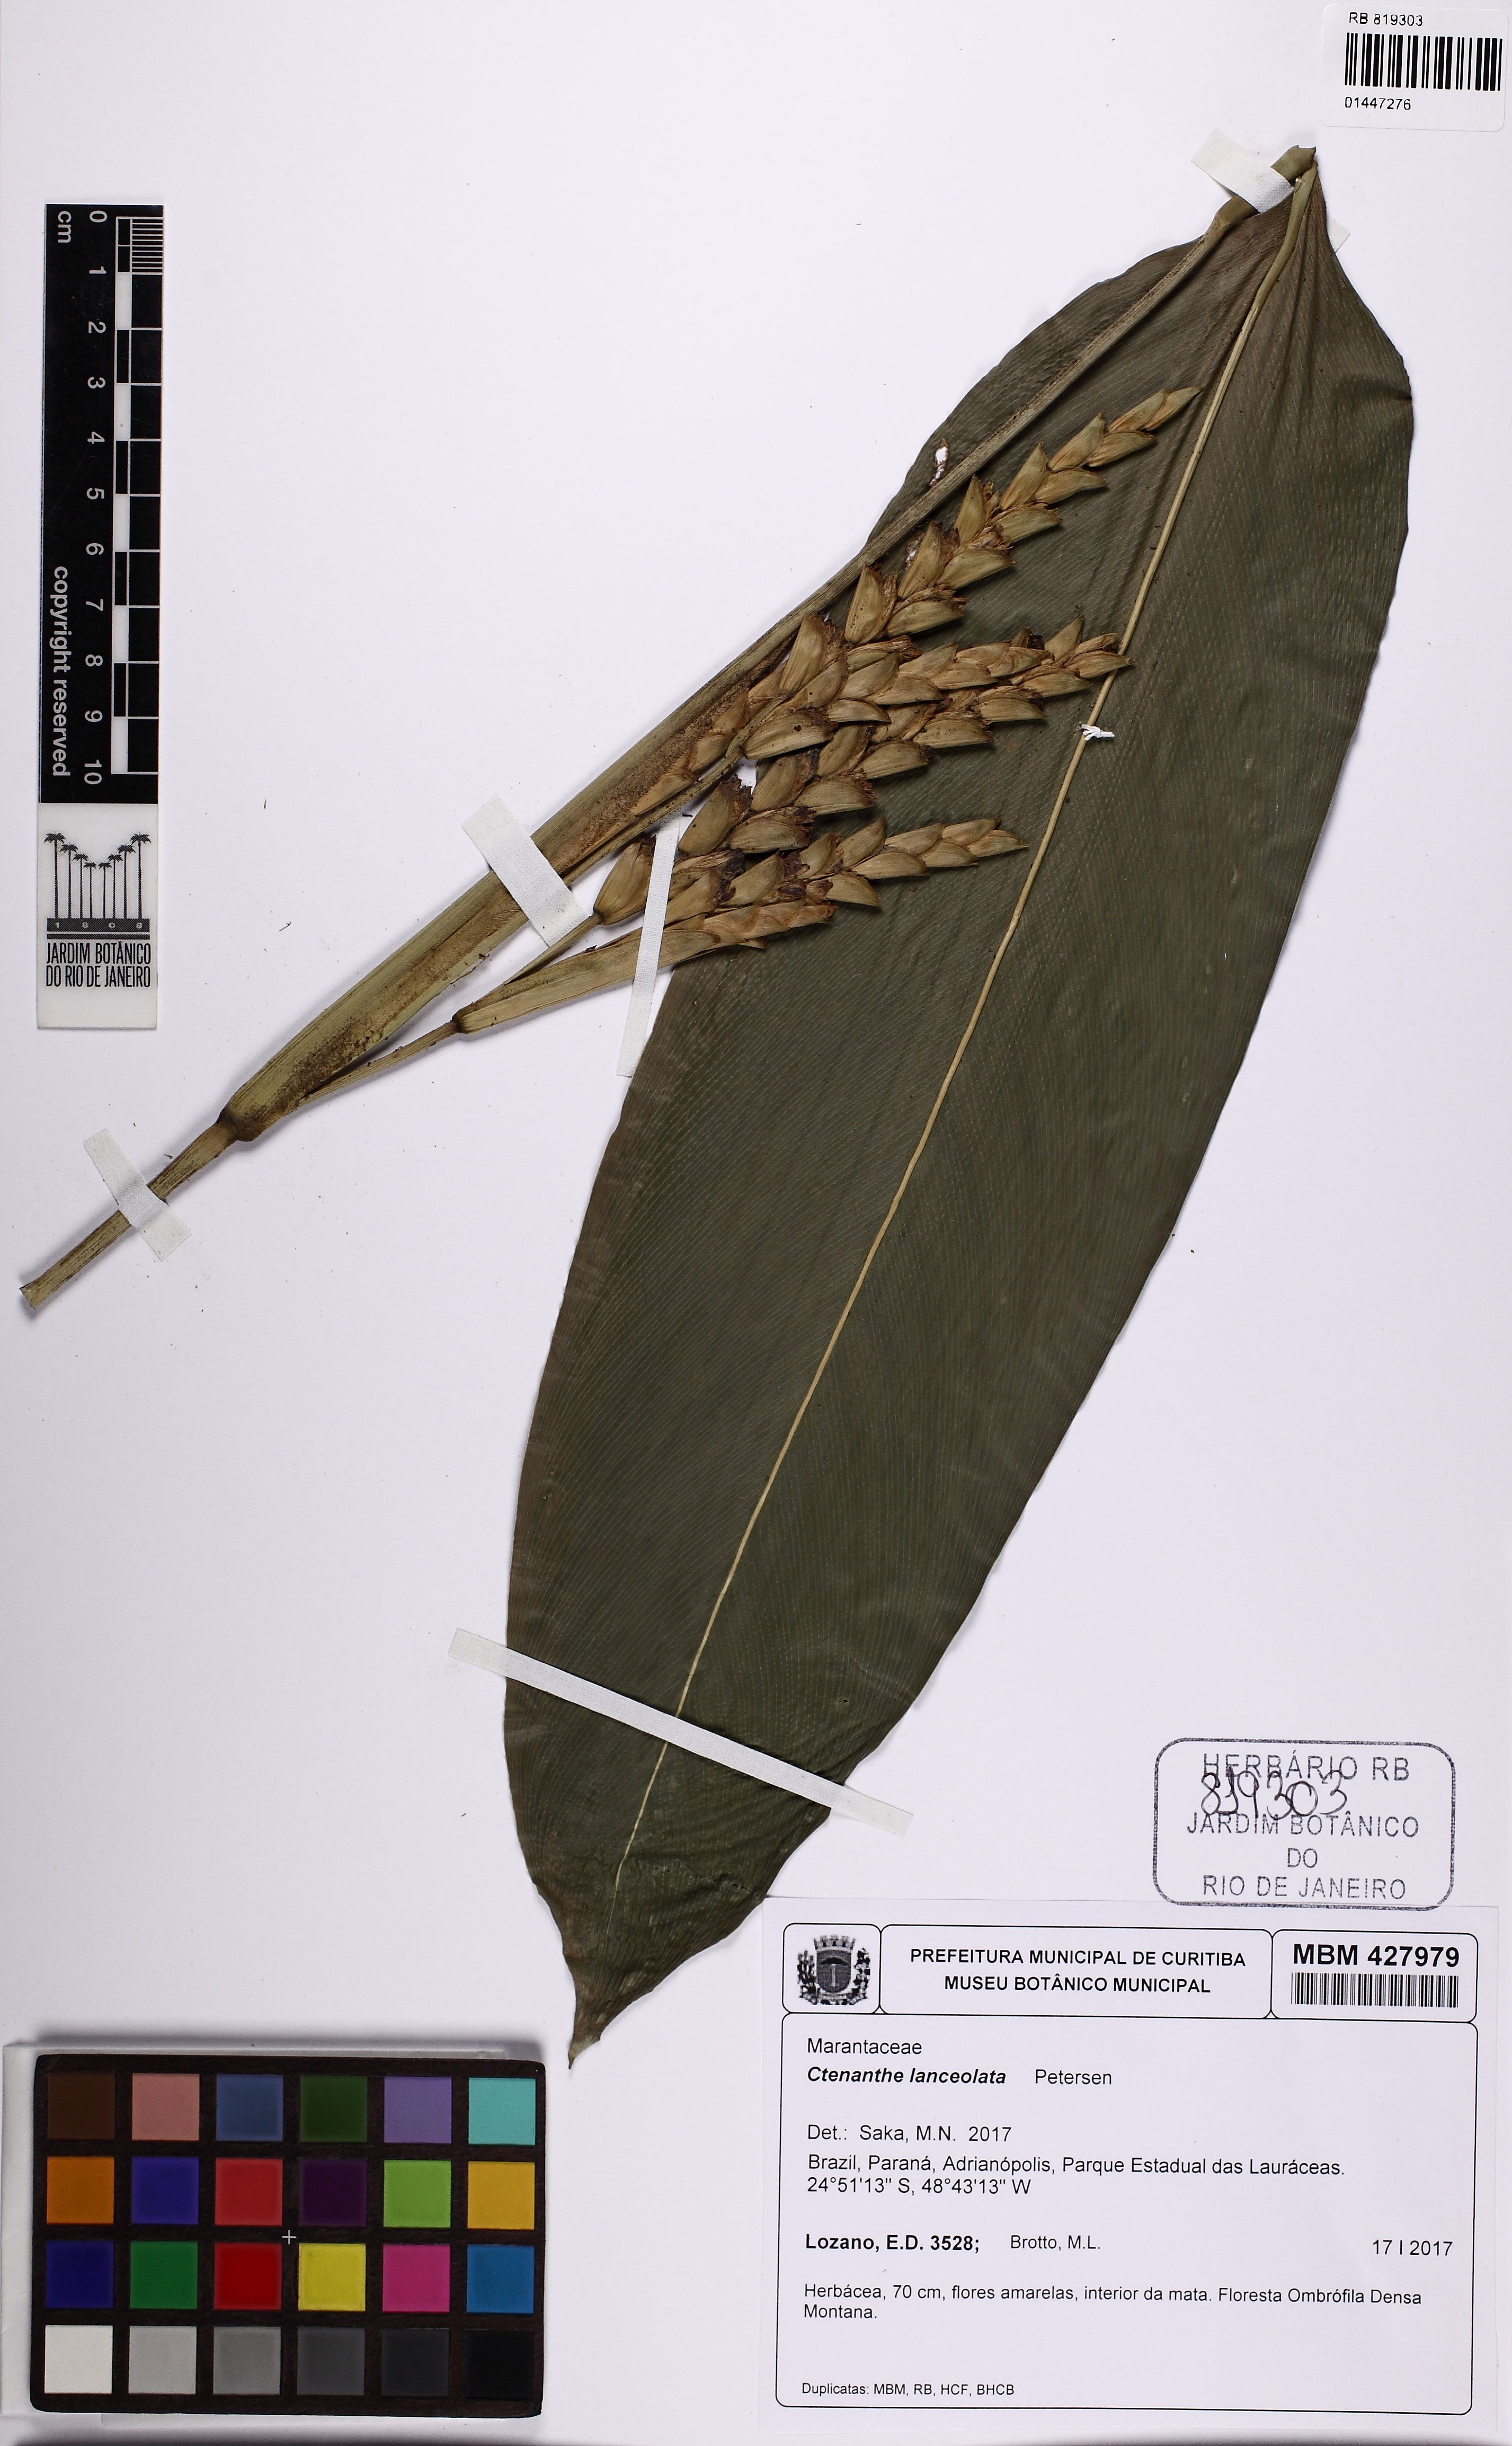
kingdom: Plantae
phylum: Tracheophyta
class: Liliopsida
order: Zingiberales
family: Marantaceae
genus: Ctenanthe
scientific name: Ctenanthe lanceolata
